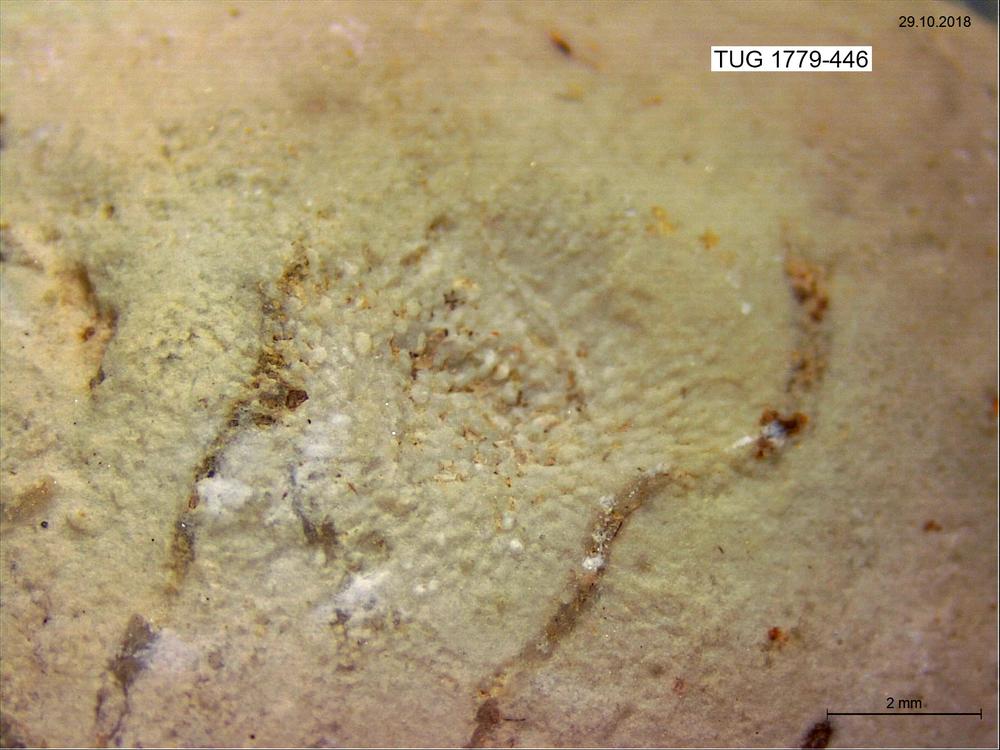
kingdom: Animalia
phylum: Bryozoa
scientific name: Bryozoa
